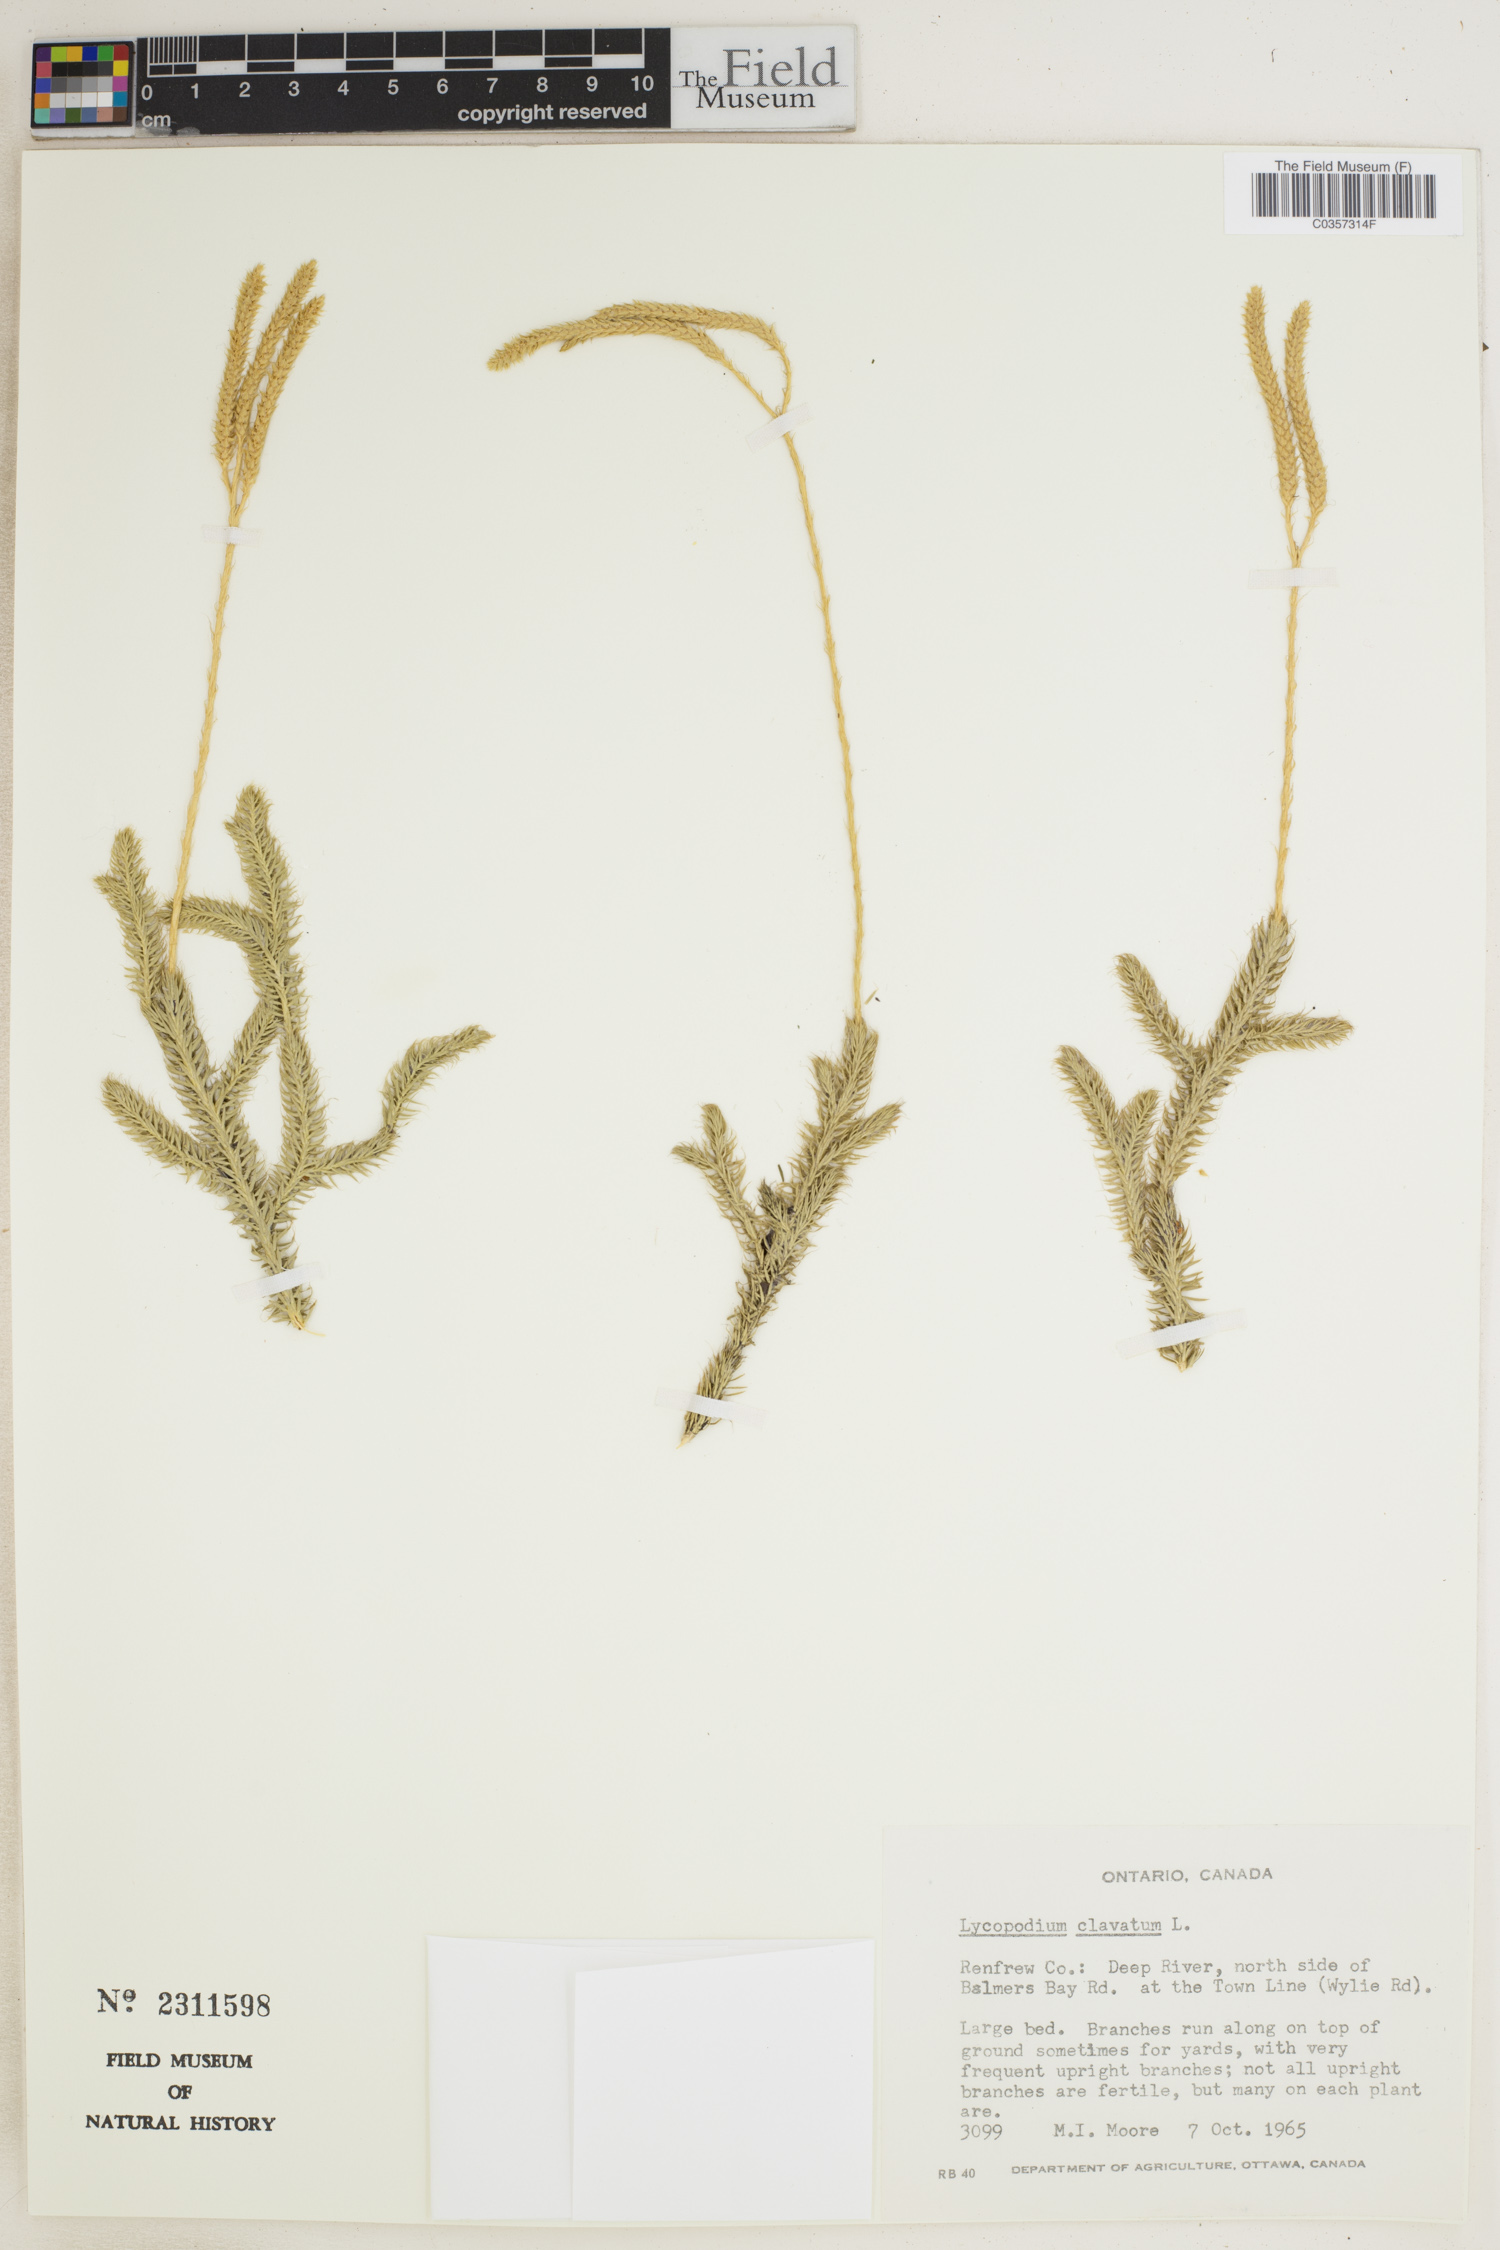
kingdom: Plantae
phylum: Tracheophyta
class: Lycopodiopsida
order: Lycopodiales
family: Lycopodiaceae
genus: Lycopodium
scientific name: Lycopodium clavatum
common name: Stag's-horn clubmoss
